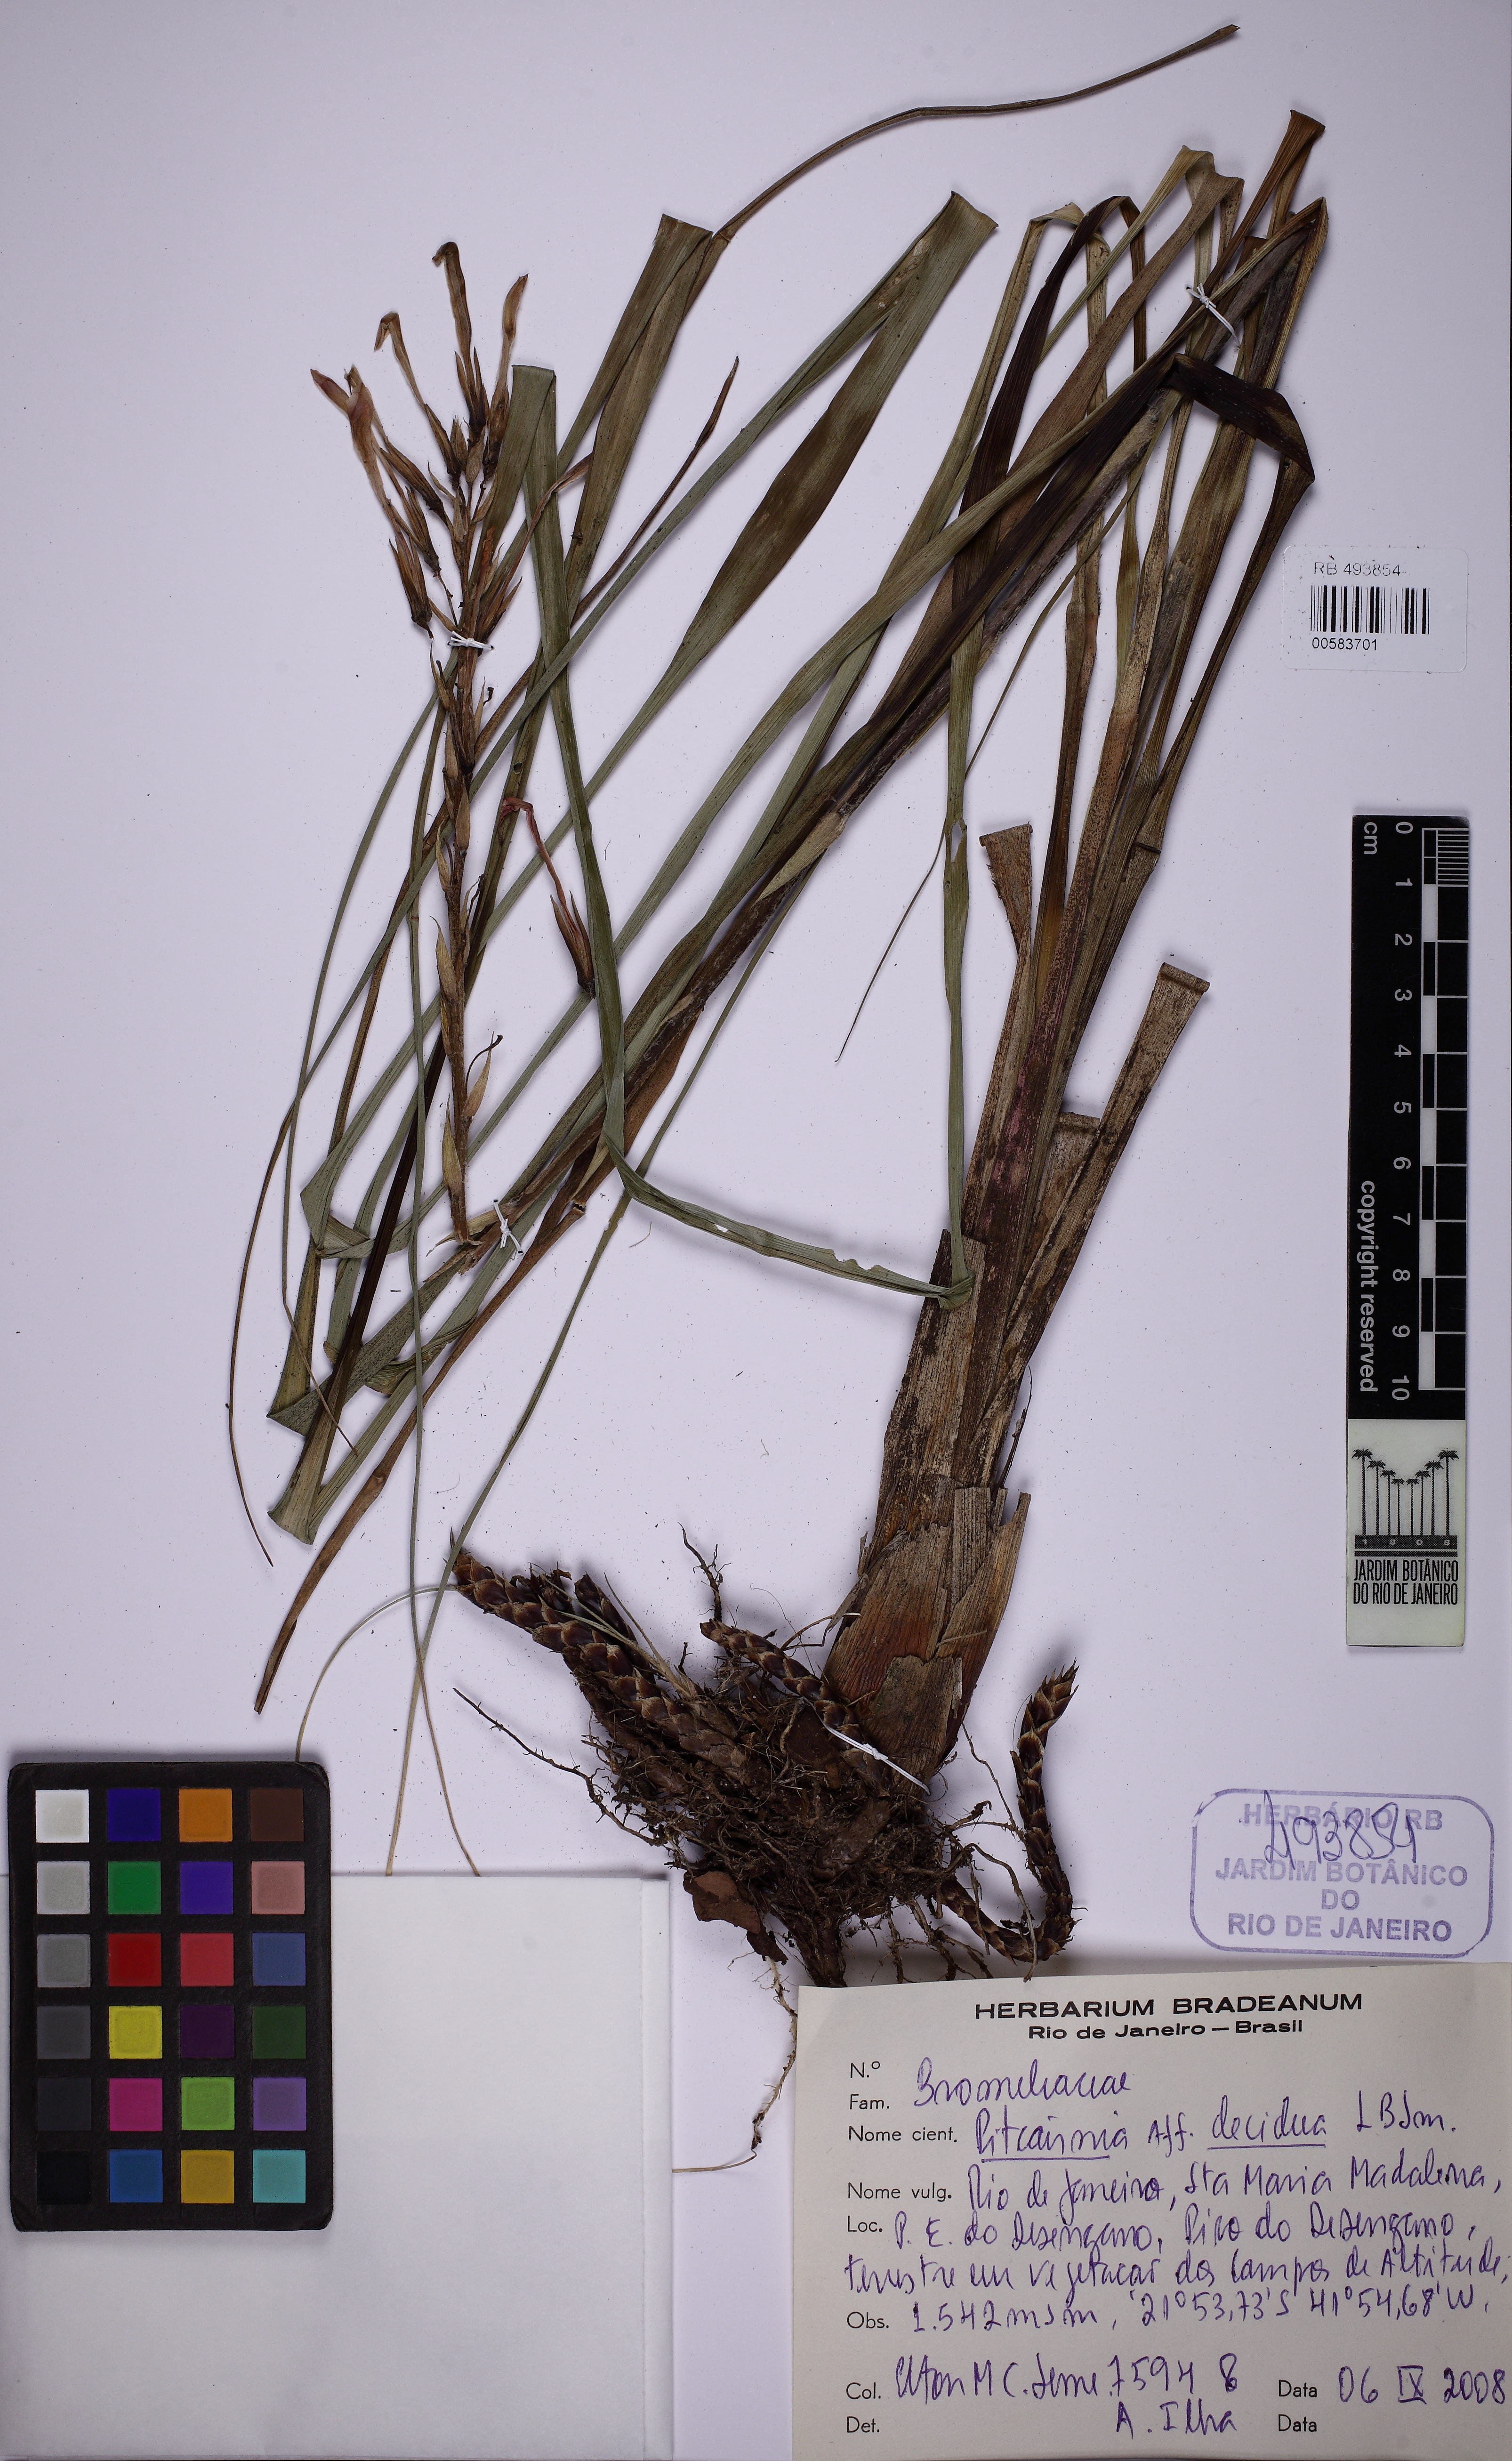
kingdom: Plantae
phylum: Tracheophyta
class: Liliopsida
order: Poales
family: Bromeliaceae
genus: Pitcairnia
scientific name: Pitcairnia decidua
